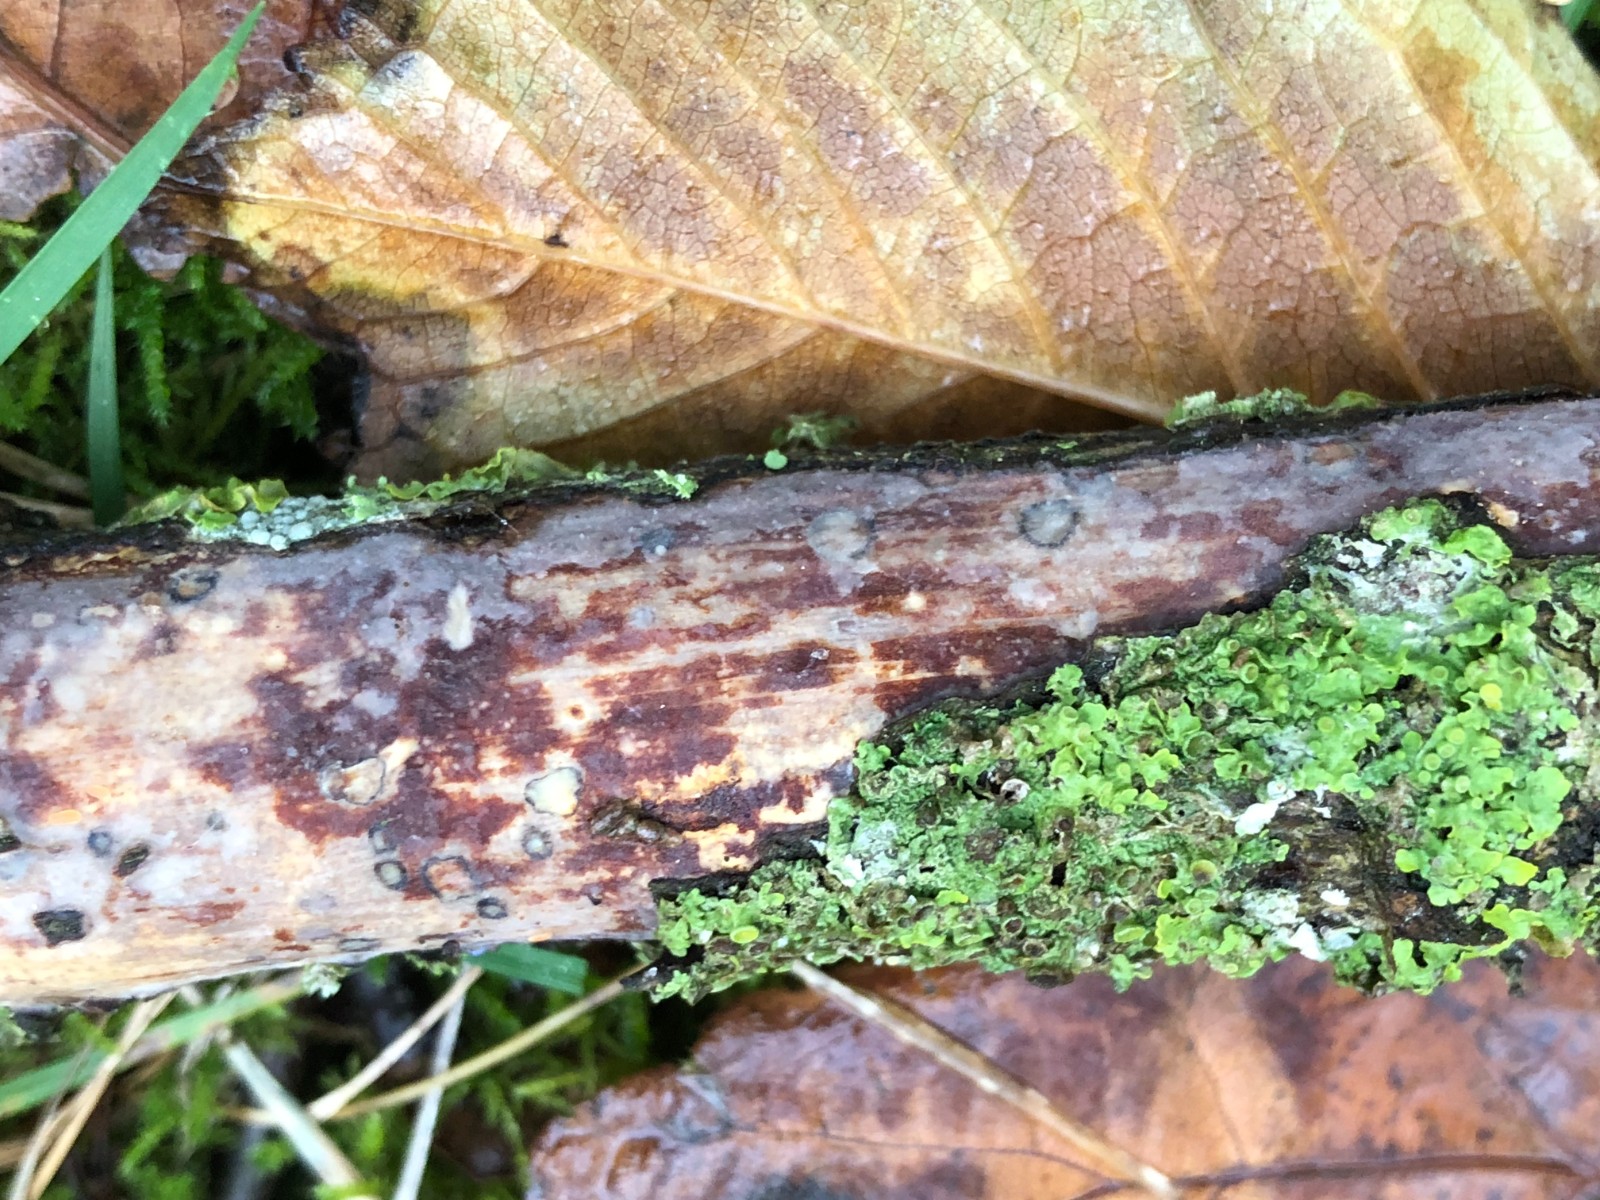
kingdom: Fungi
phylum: Basidiomycota
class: Agaricomycetes
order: Corticiales
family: Vuilleminiaceae
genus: Vuilleminia
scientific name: Vuilleminia comedens
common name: almindelig barksprænger
